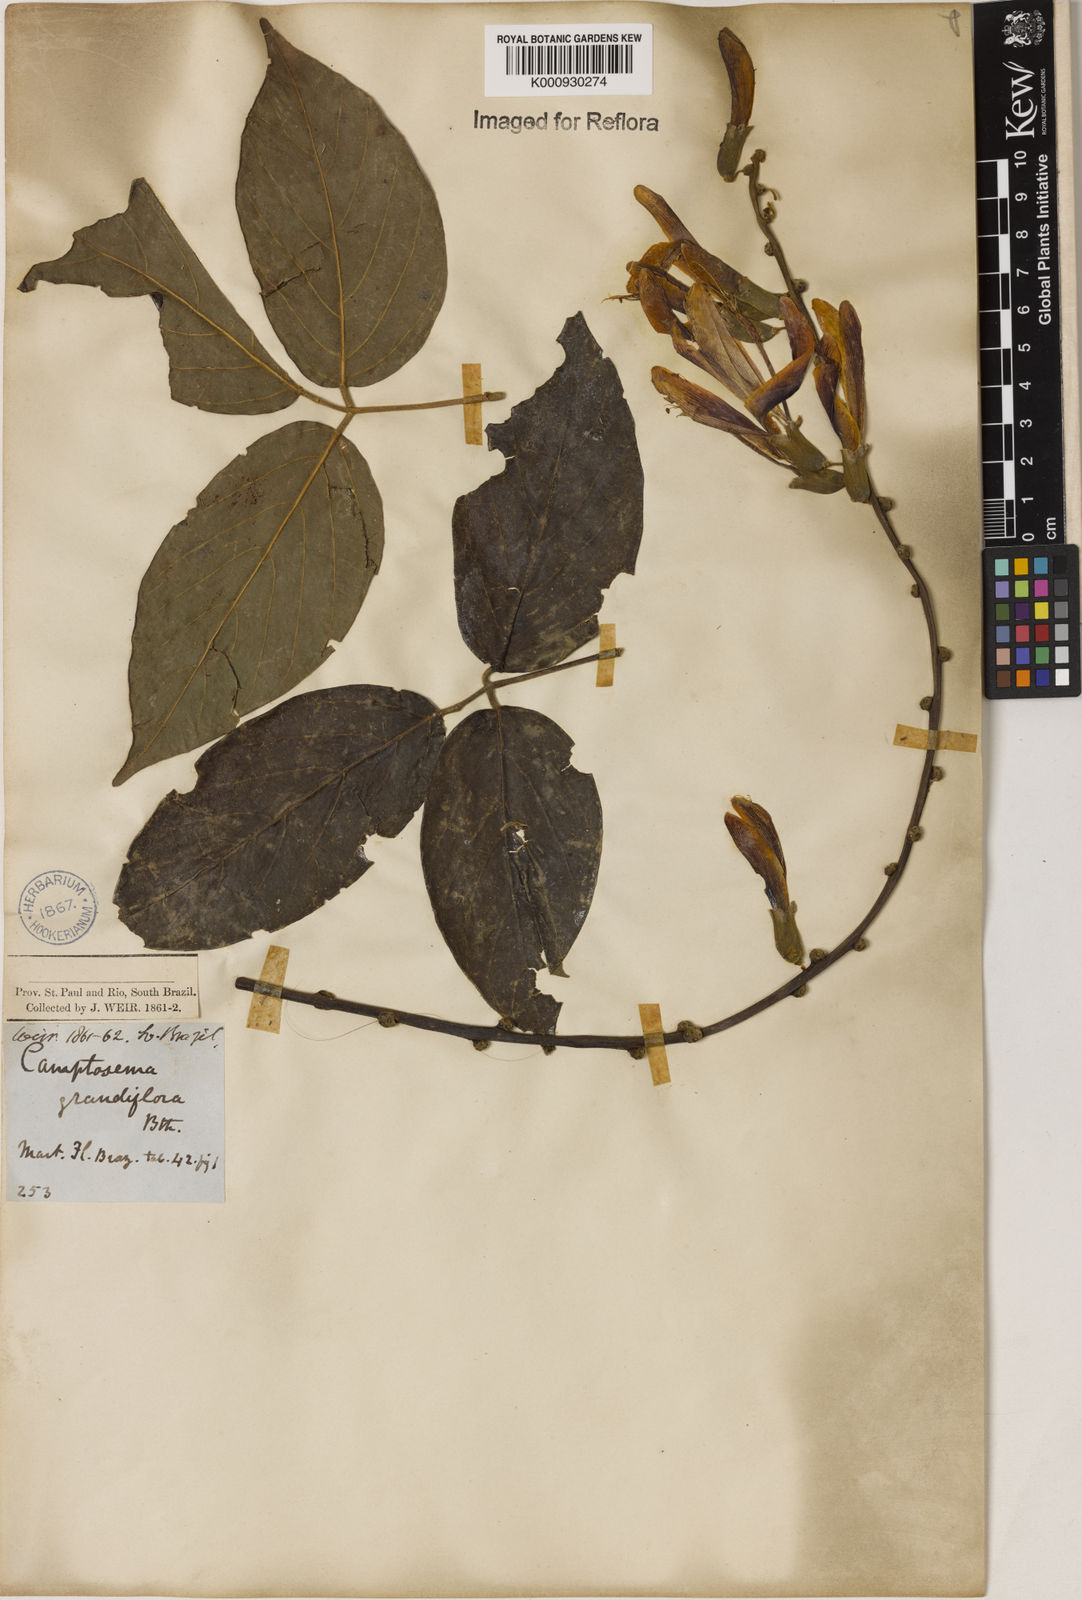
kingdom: Plantae
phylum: Tracheophyta
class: Magnoliopsida
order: Fabales
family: Fabaceae
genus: Camptosema
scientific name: Camptosema spectabile
